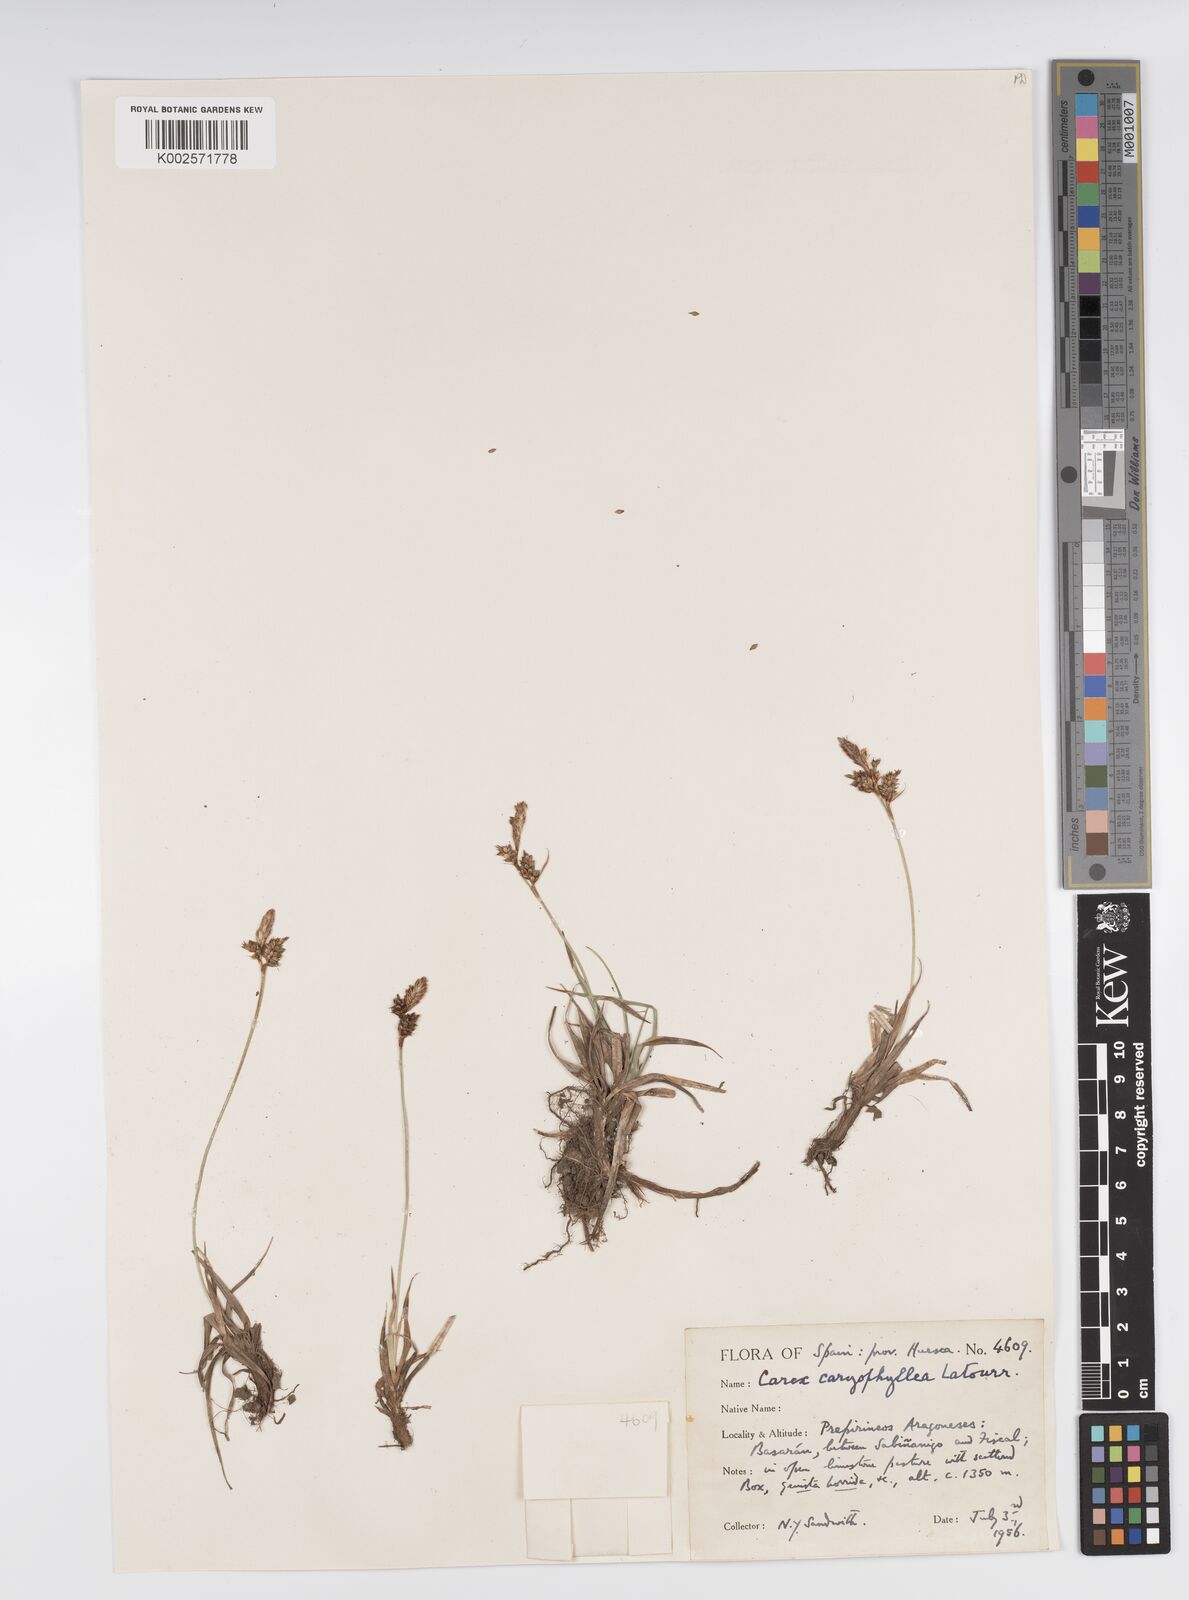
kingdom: Plantae
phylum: Tracheophyta
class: Liliopsida
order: Poales
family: Cyperaceae
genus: Carex
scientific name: Carex caryophyllea
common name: Spring sedge
